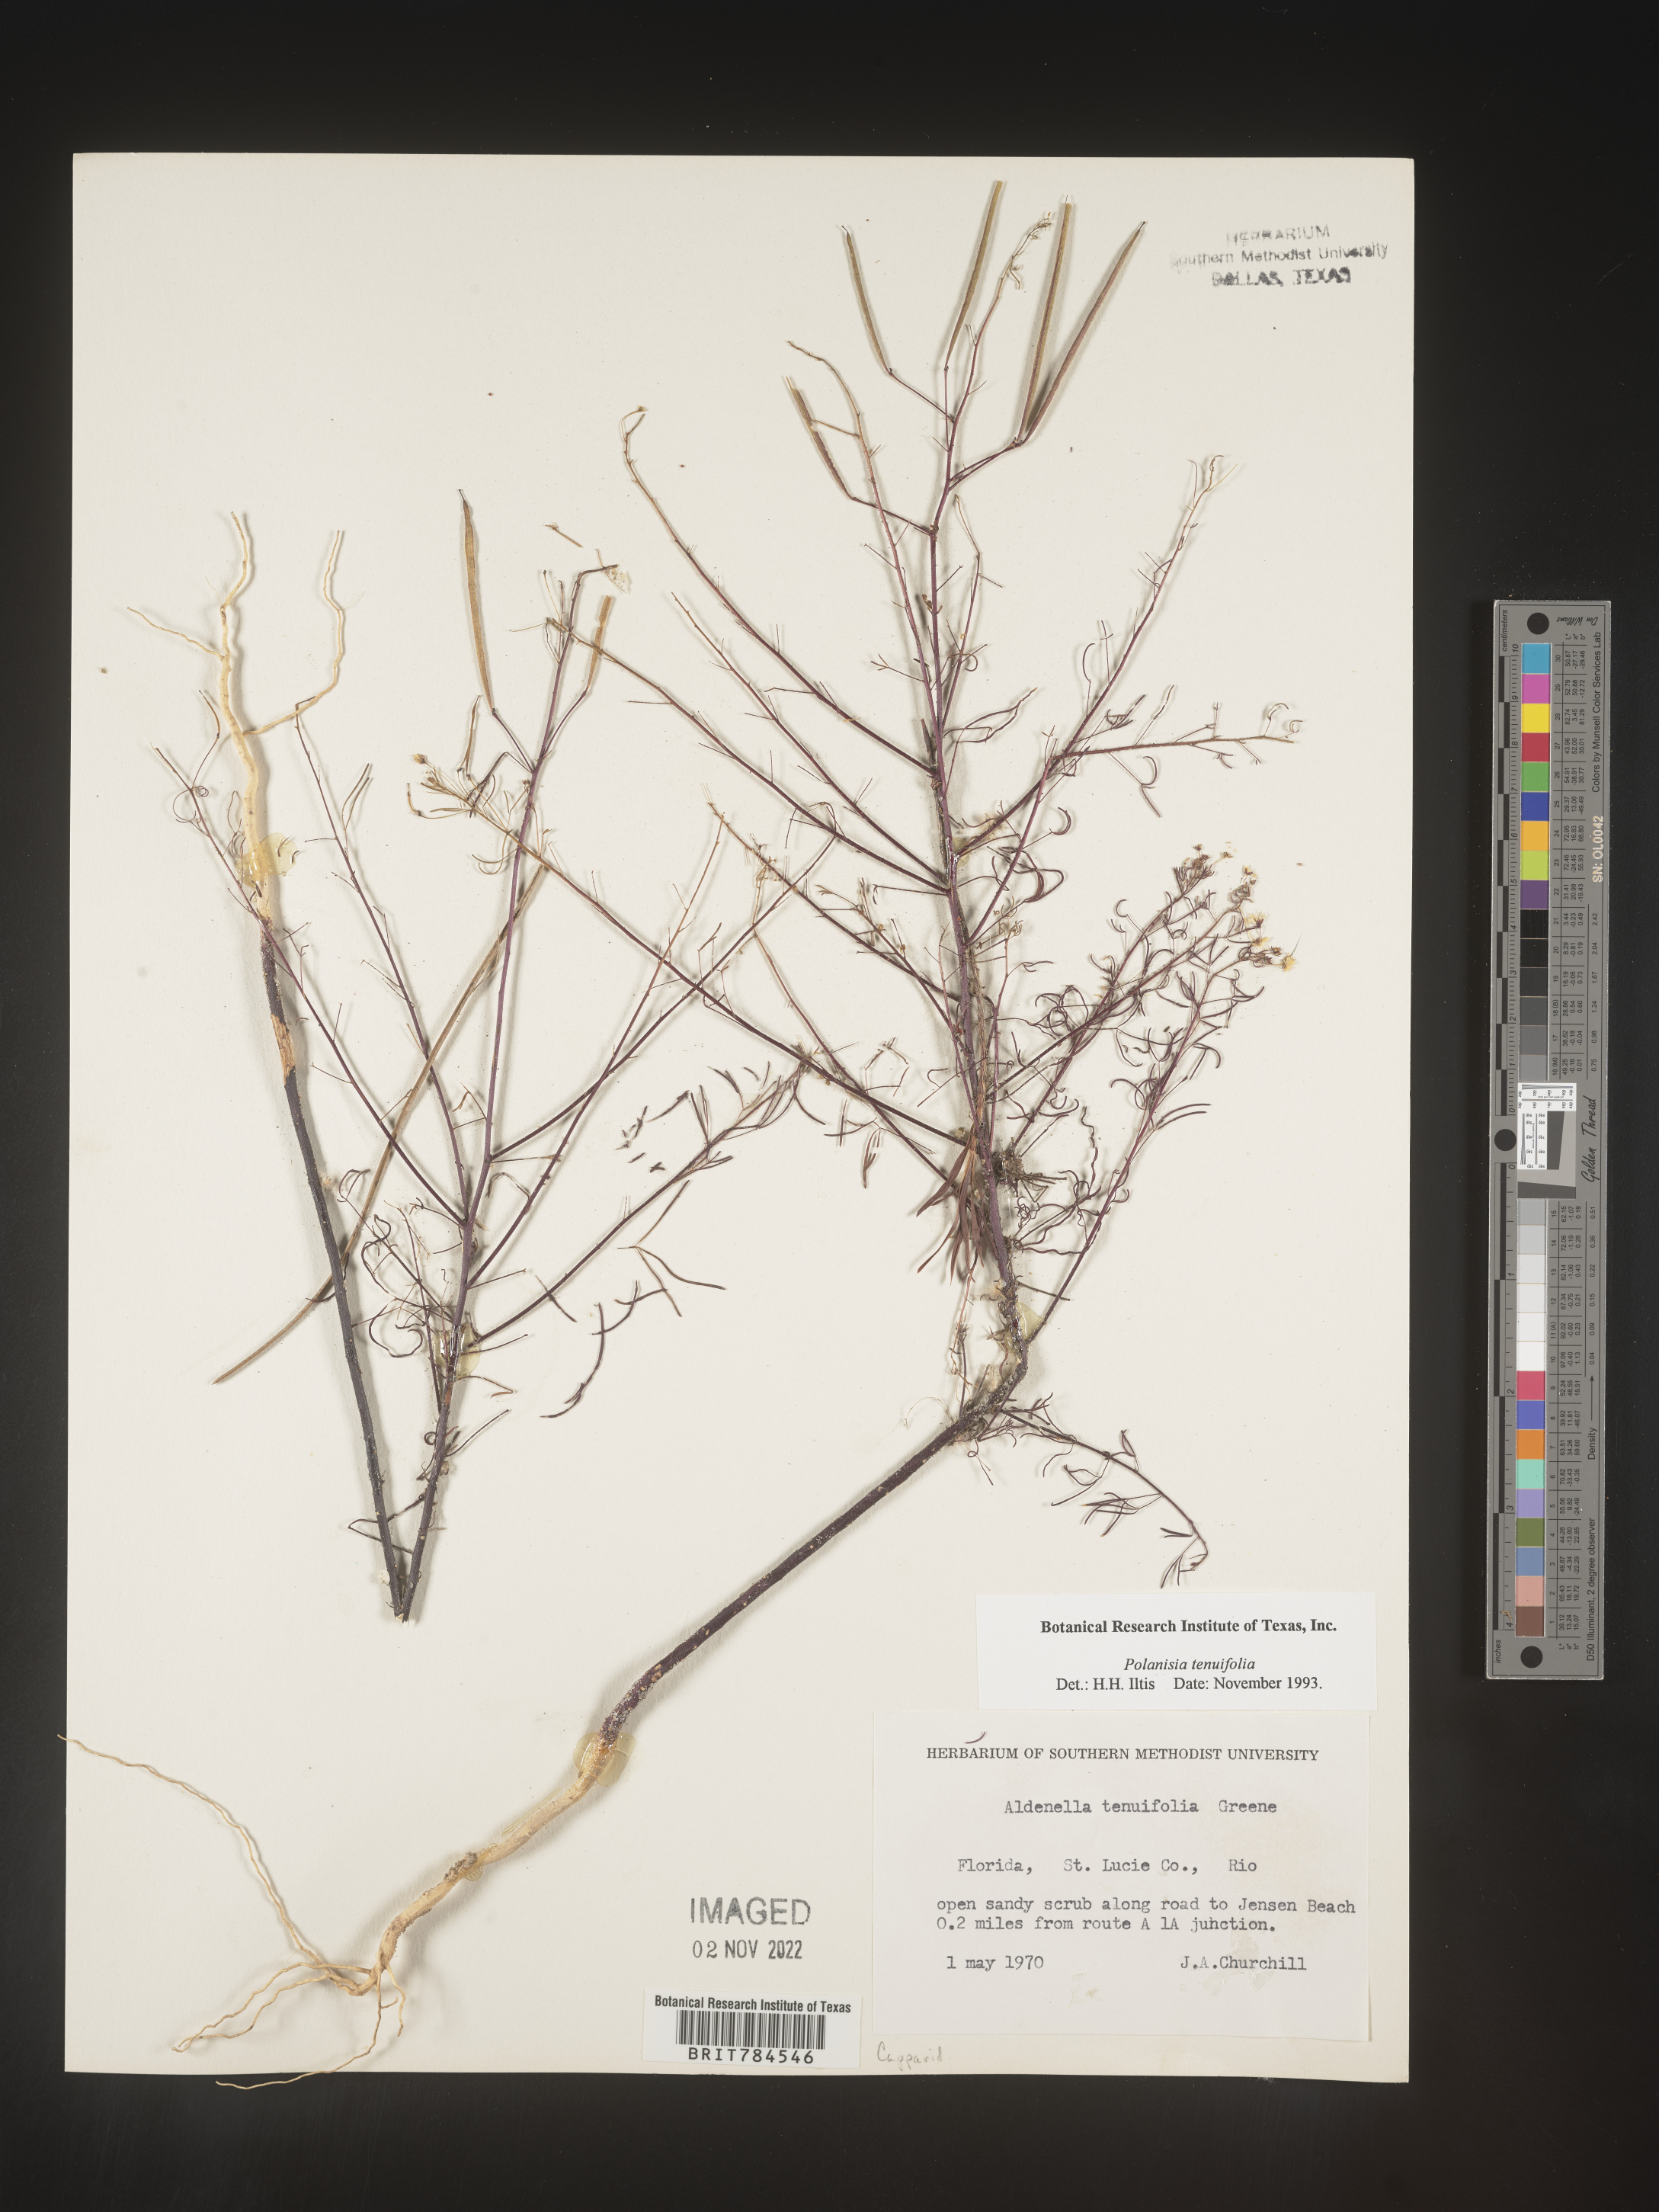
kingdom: Plantae
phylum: Tracheophyta
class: Magnoliopsida
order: Brassicales
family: Cleomaceae
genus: Polanisia
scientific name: Polanisia
